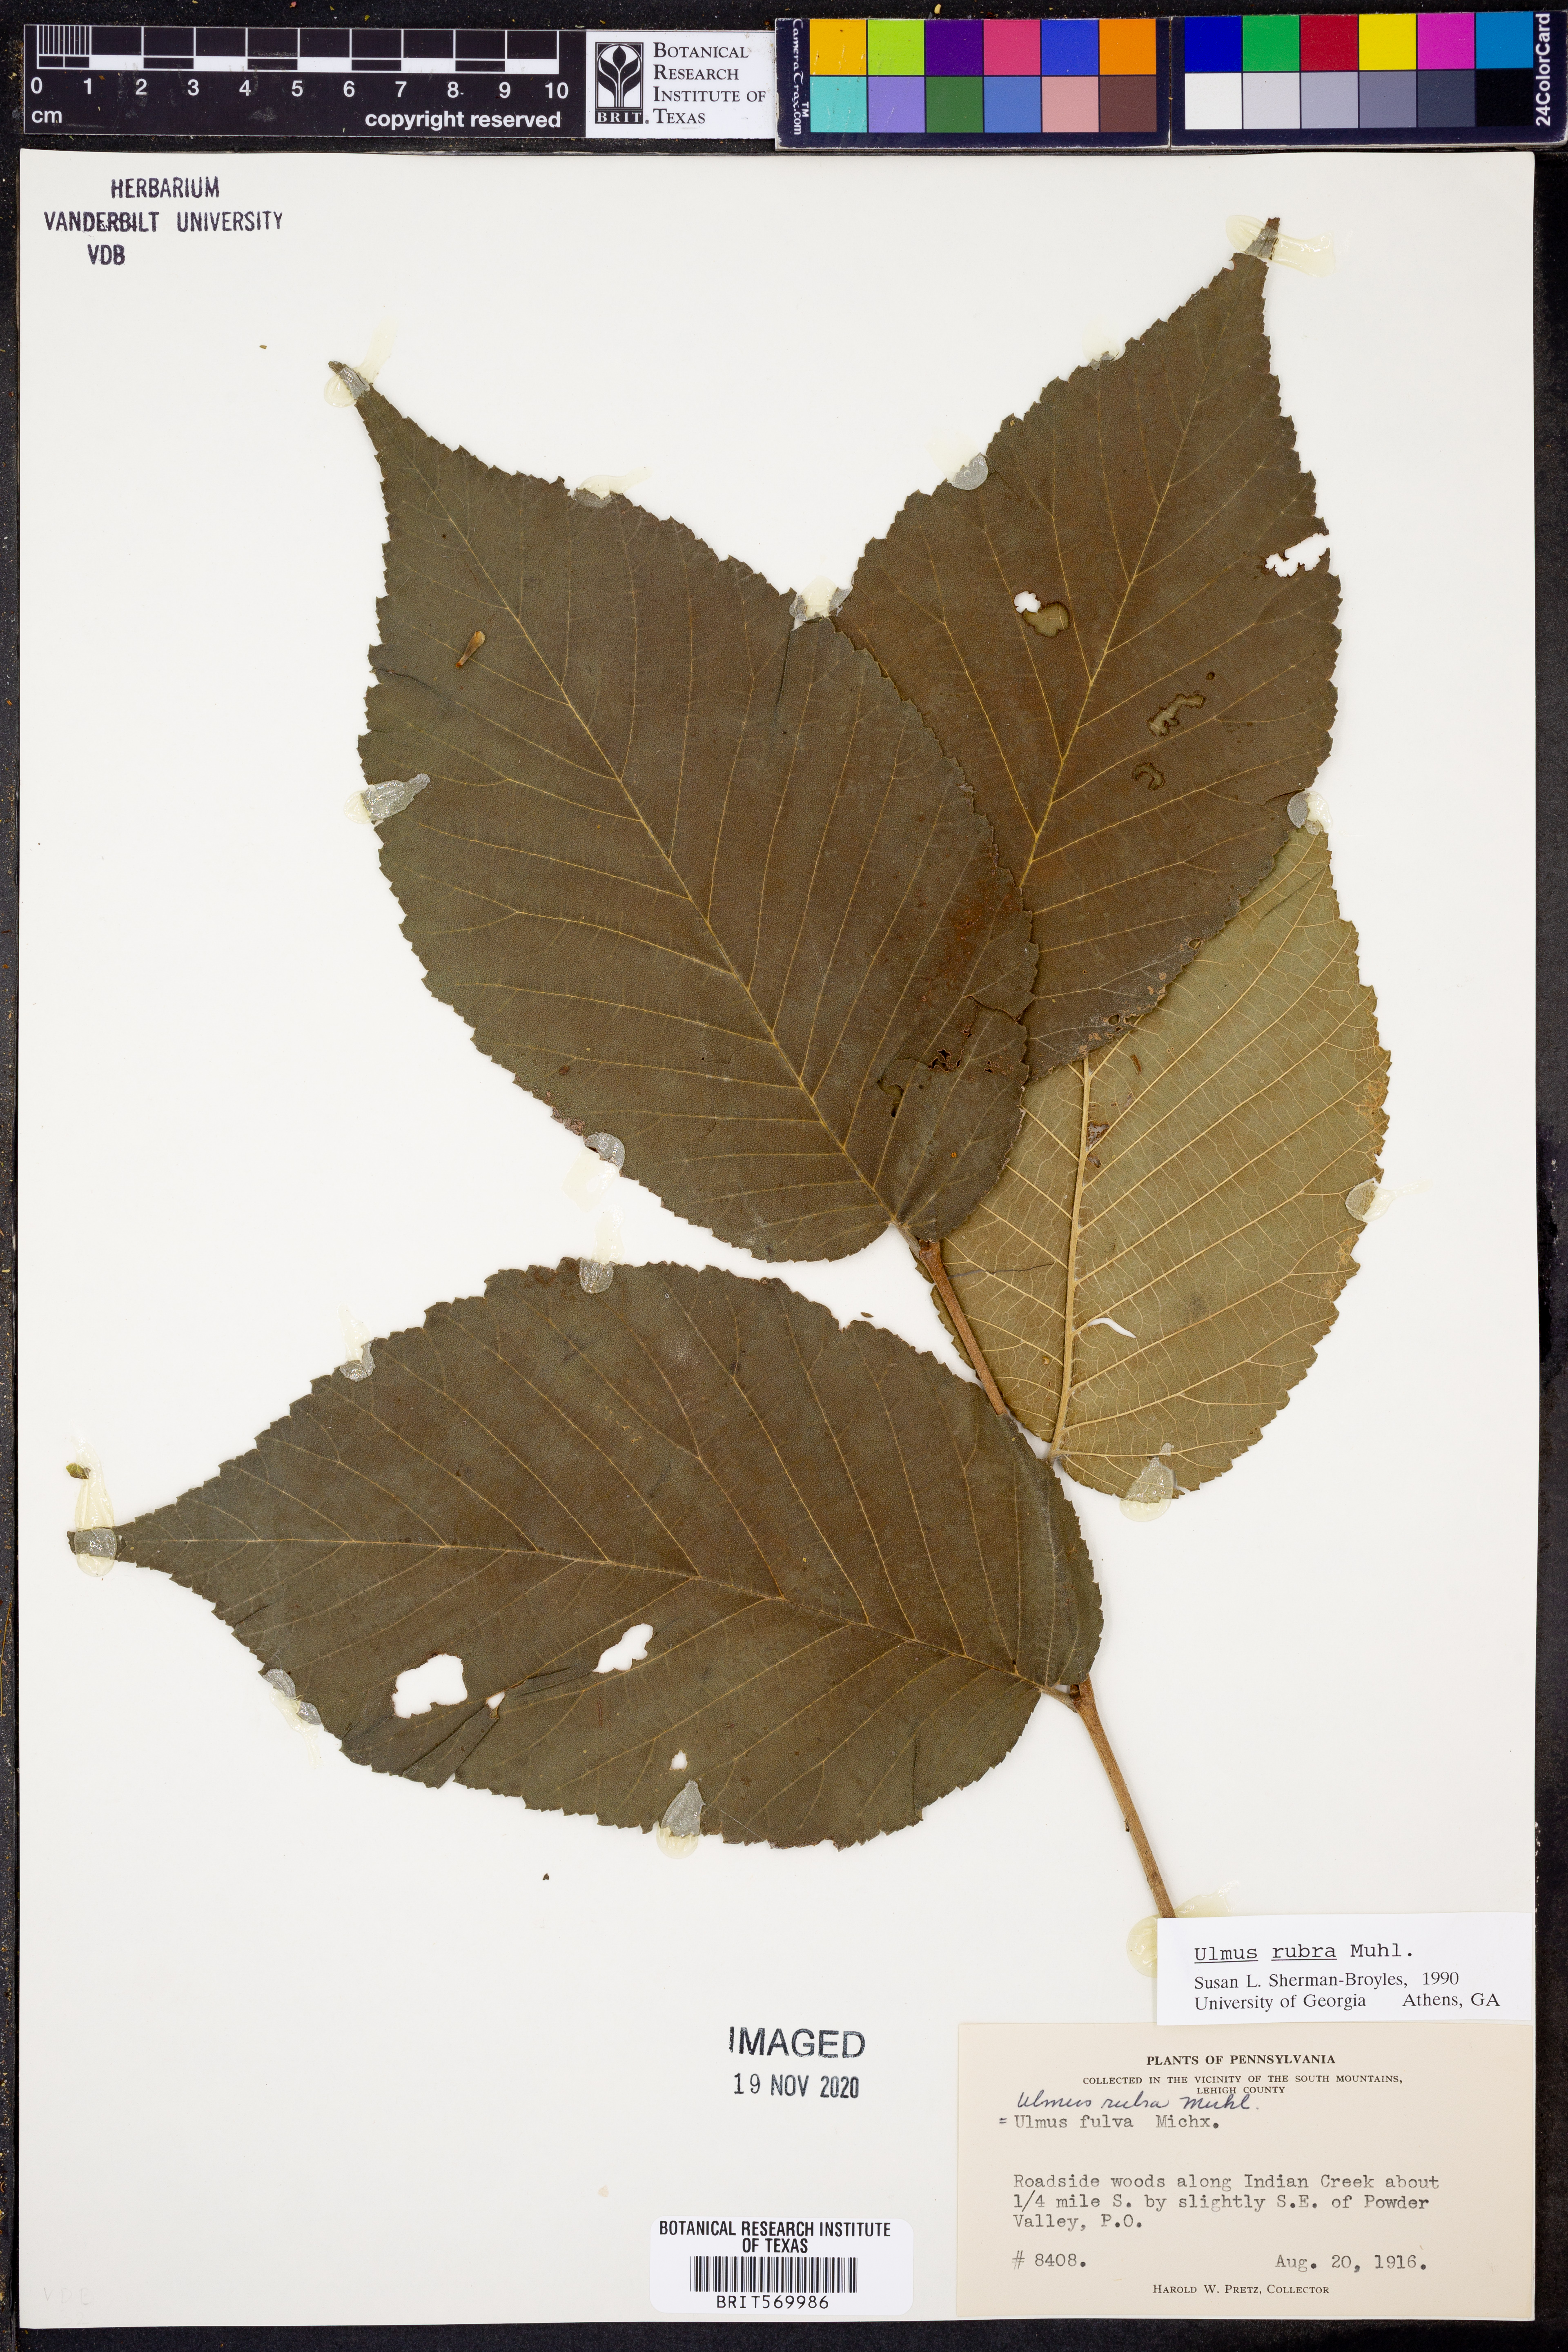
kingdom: Plantae
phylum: Tracheophyta
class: Magnoliopsida
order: Rosales
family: Ulmaceae
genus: Ulmus
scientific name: Ulmus rubra
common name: Slippery elm
